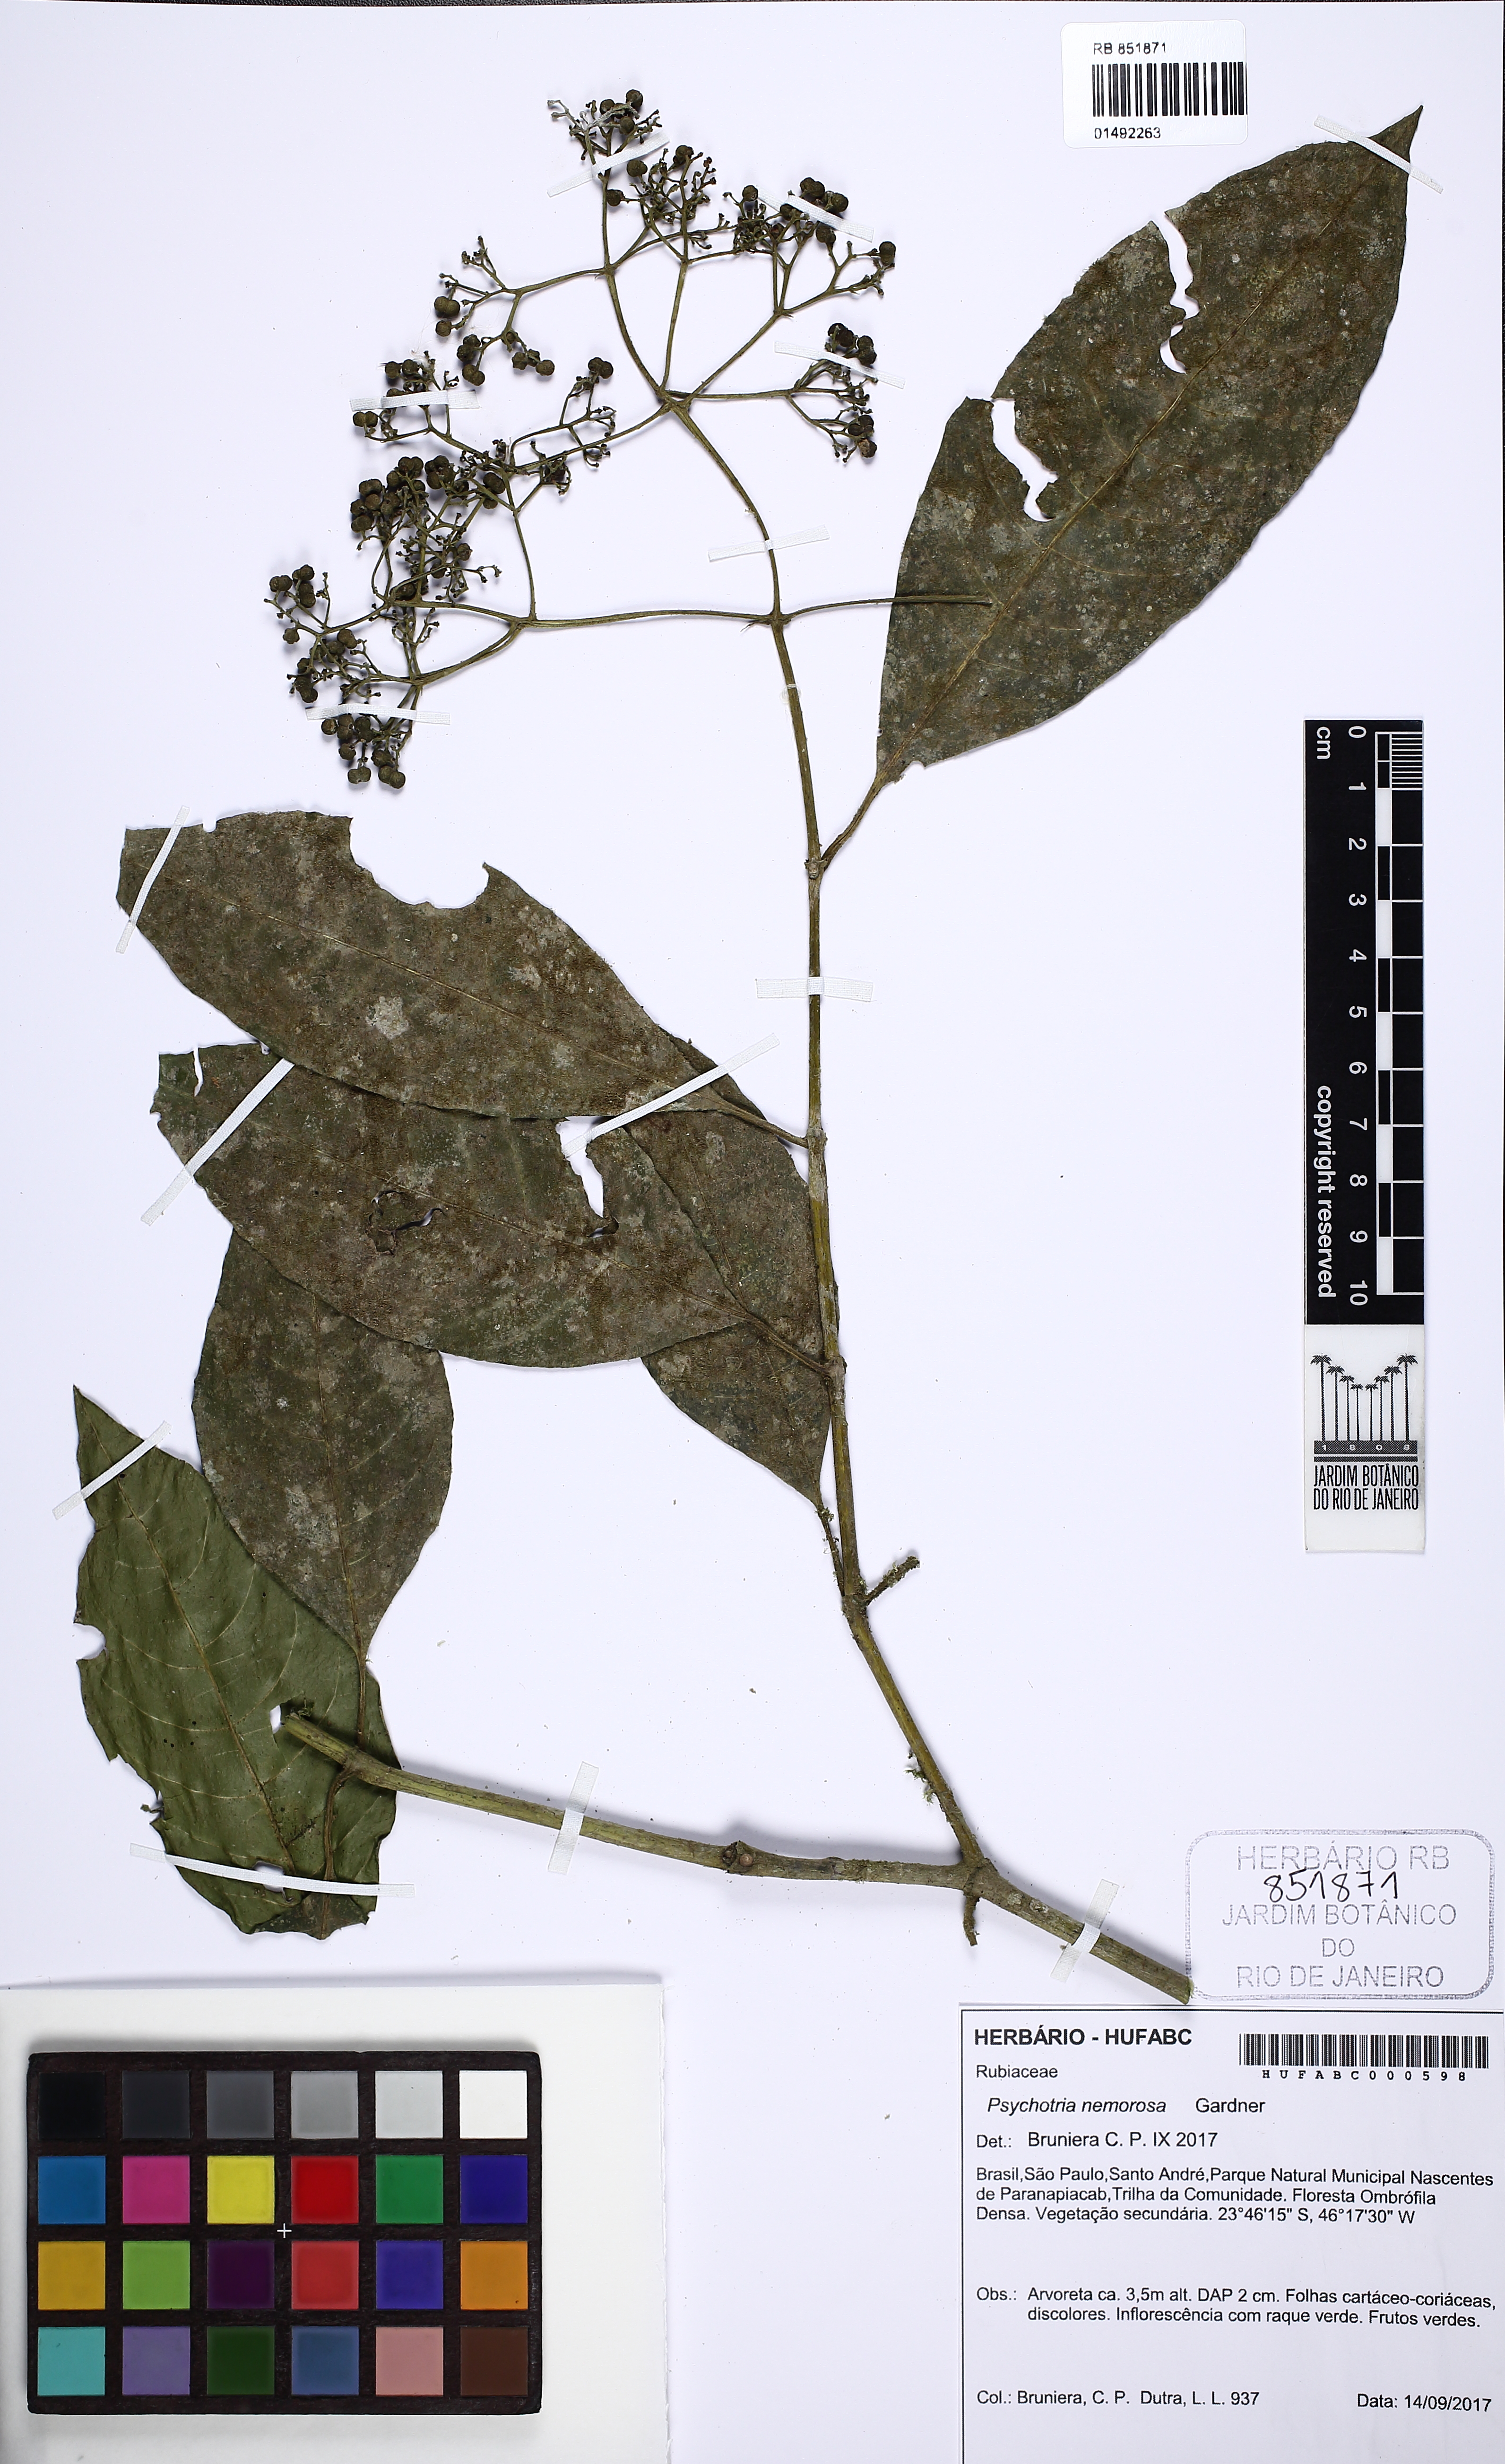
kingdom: Plantae
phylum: Tracheophyta
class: Magnoliopsida
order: Gentianales
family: Rubiaceae
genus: Psychotria
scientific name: Psychotria nemorosa
